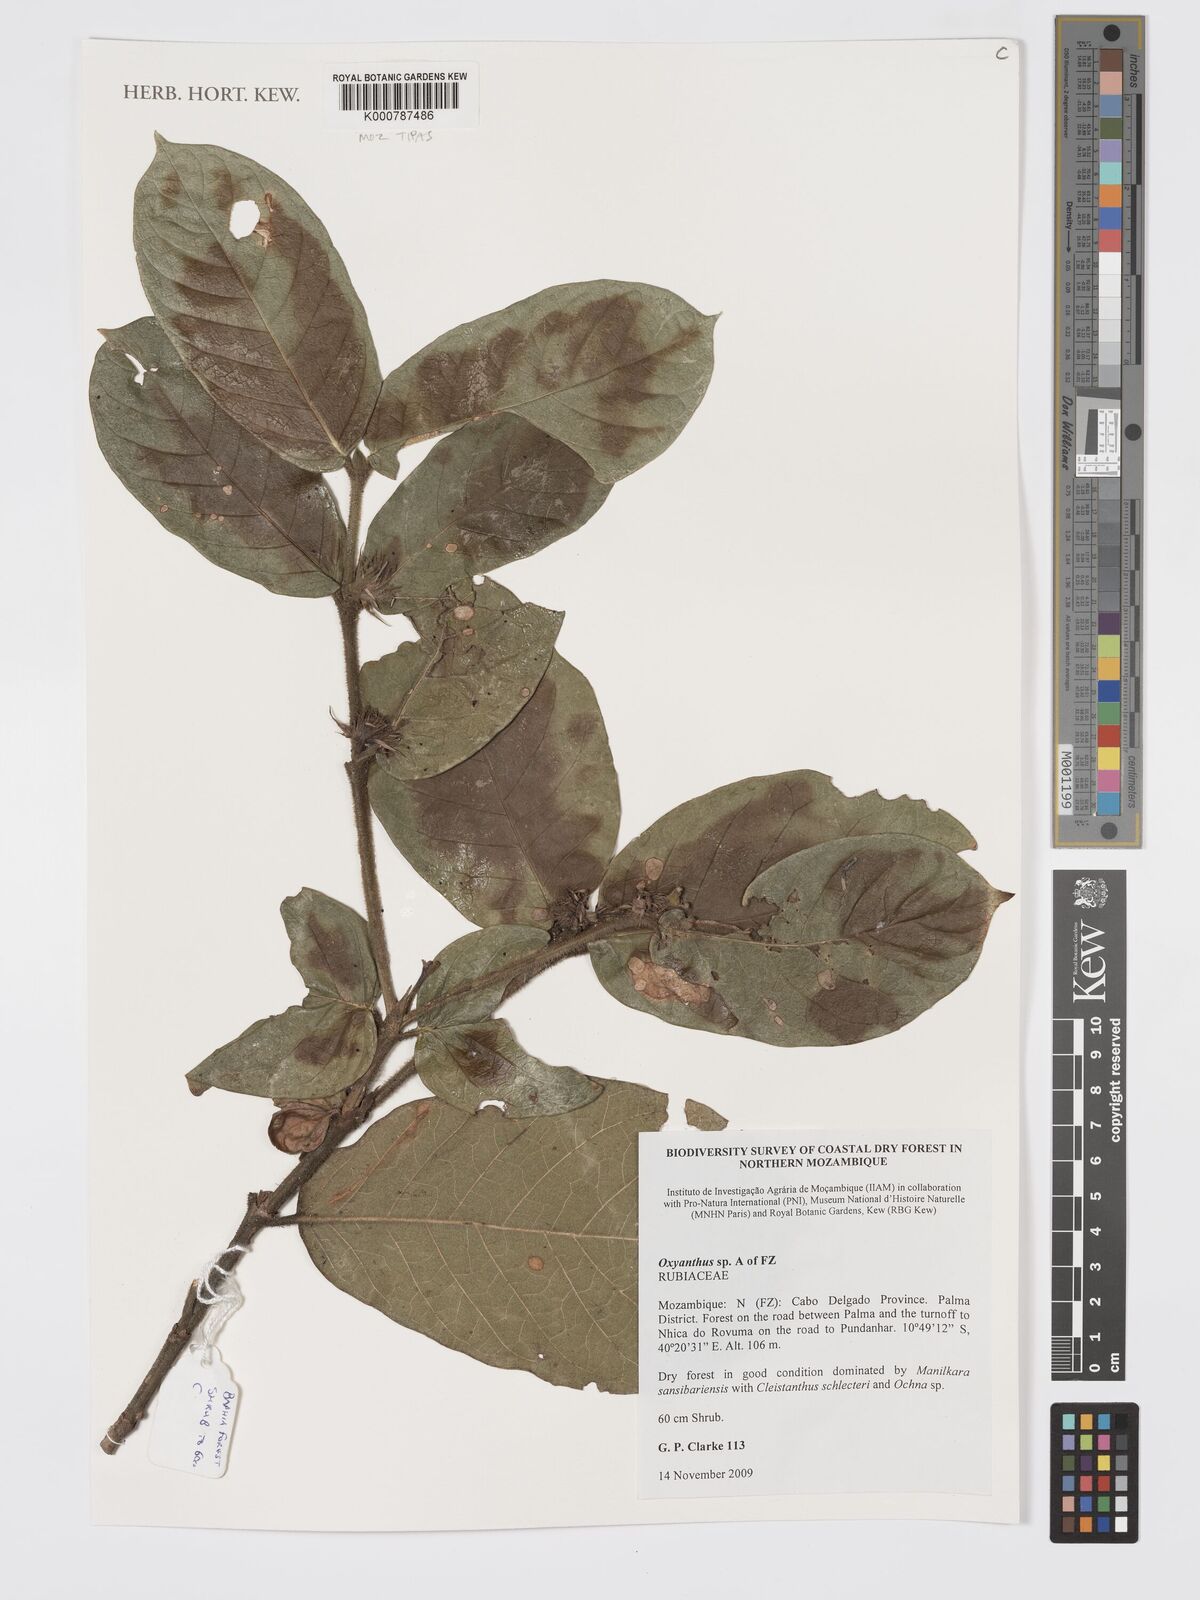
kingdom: Plantae
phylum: Tracheophyta
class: Magnoliopsida
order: Gentianales
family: Rubiaceae
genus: Oxyanthus
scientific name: Oxyanthus strigosus
